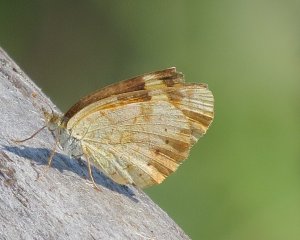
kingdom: Animalia
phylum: Arthropoda
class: Insecta
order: Lepidoptera
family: Nymphalidae
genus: Phyciodes
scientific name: Phyciodes tharos
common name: Northern Crescent
